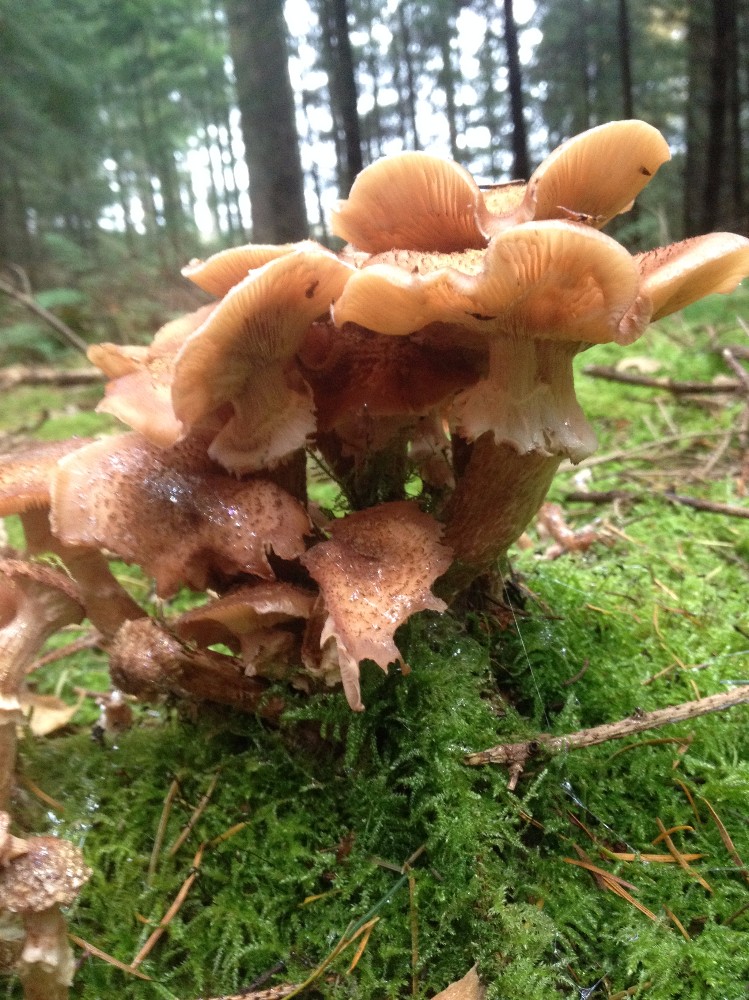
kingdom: Fungi
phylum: Basidiomycota
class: Agaricomycetes
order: Agaricales
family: Physalacriaceae
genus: Armillaria
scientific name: Armillaria ostoyae
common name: mørk honningsvamp
